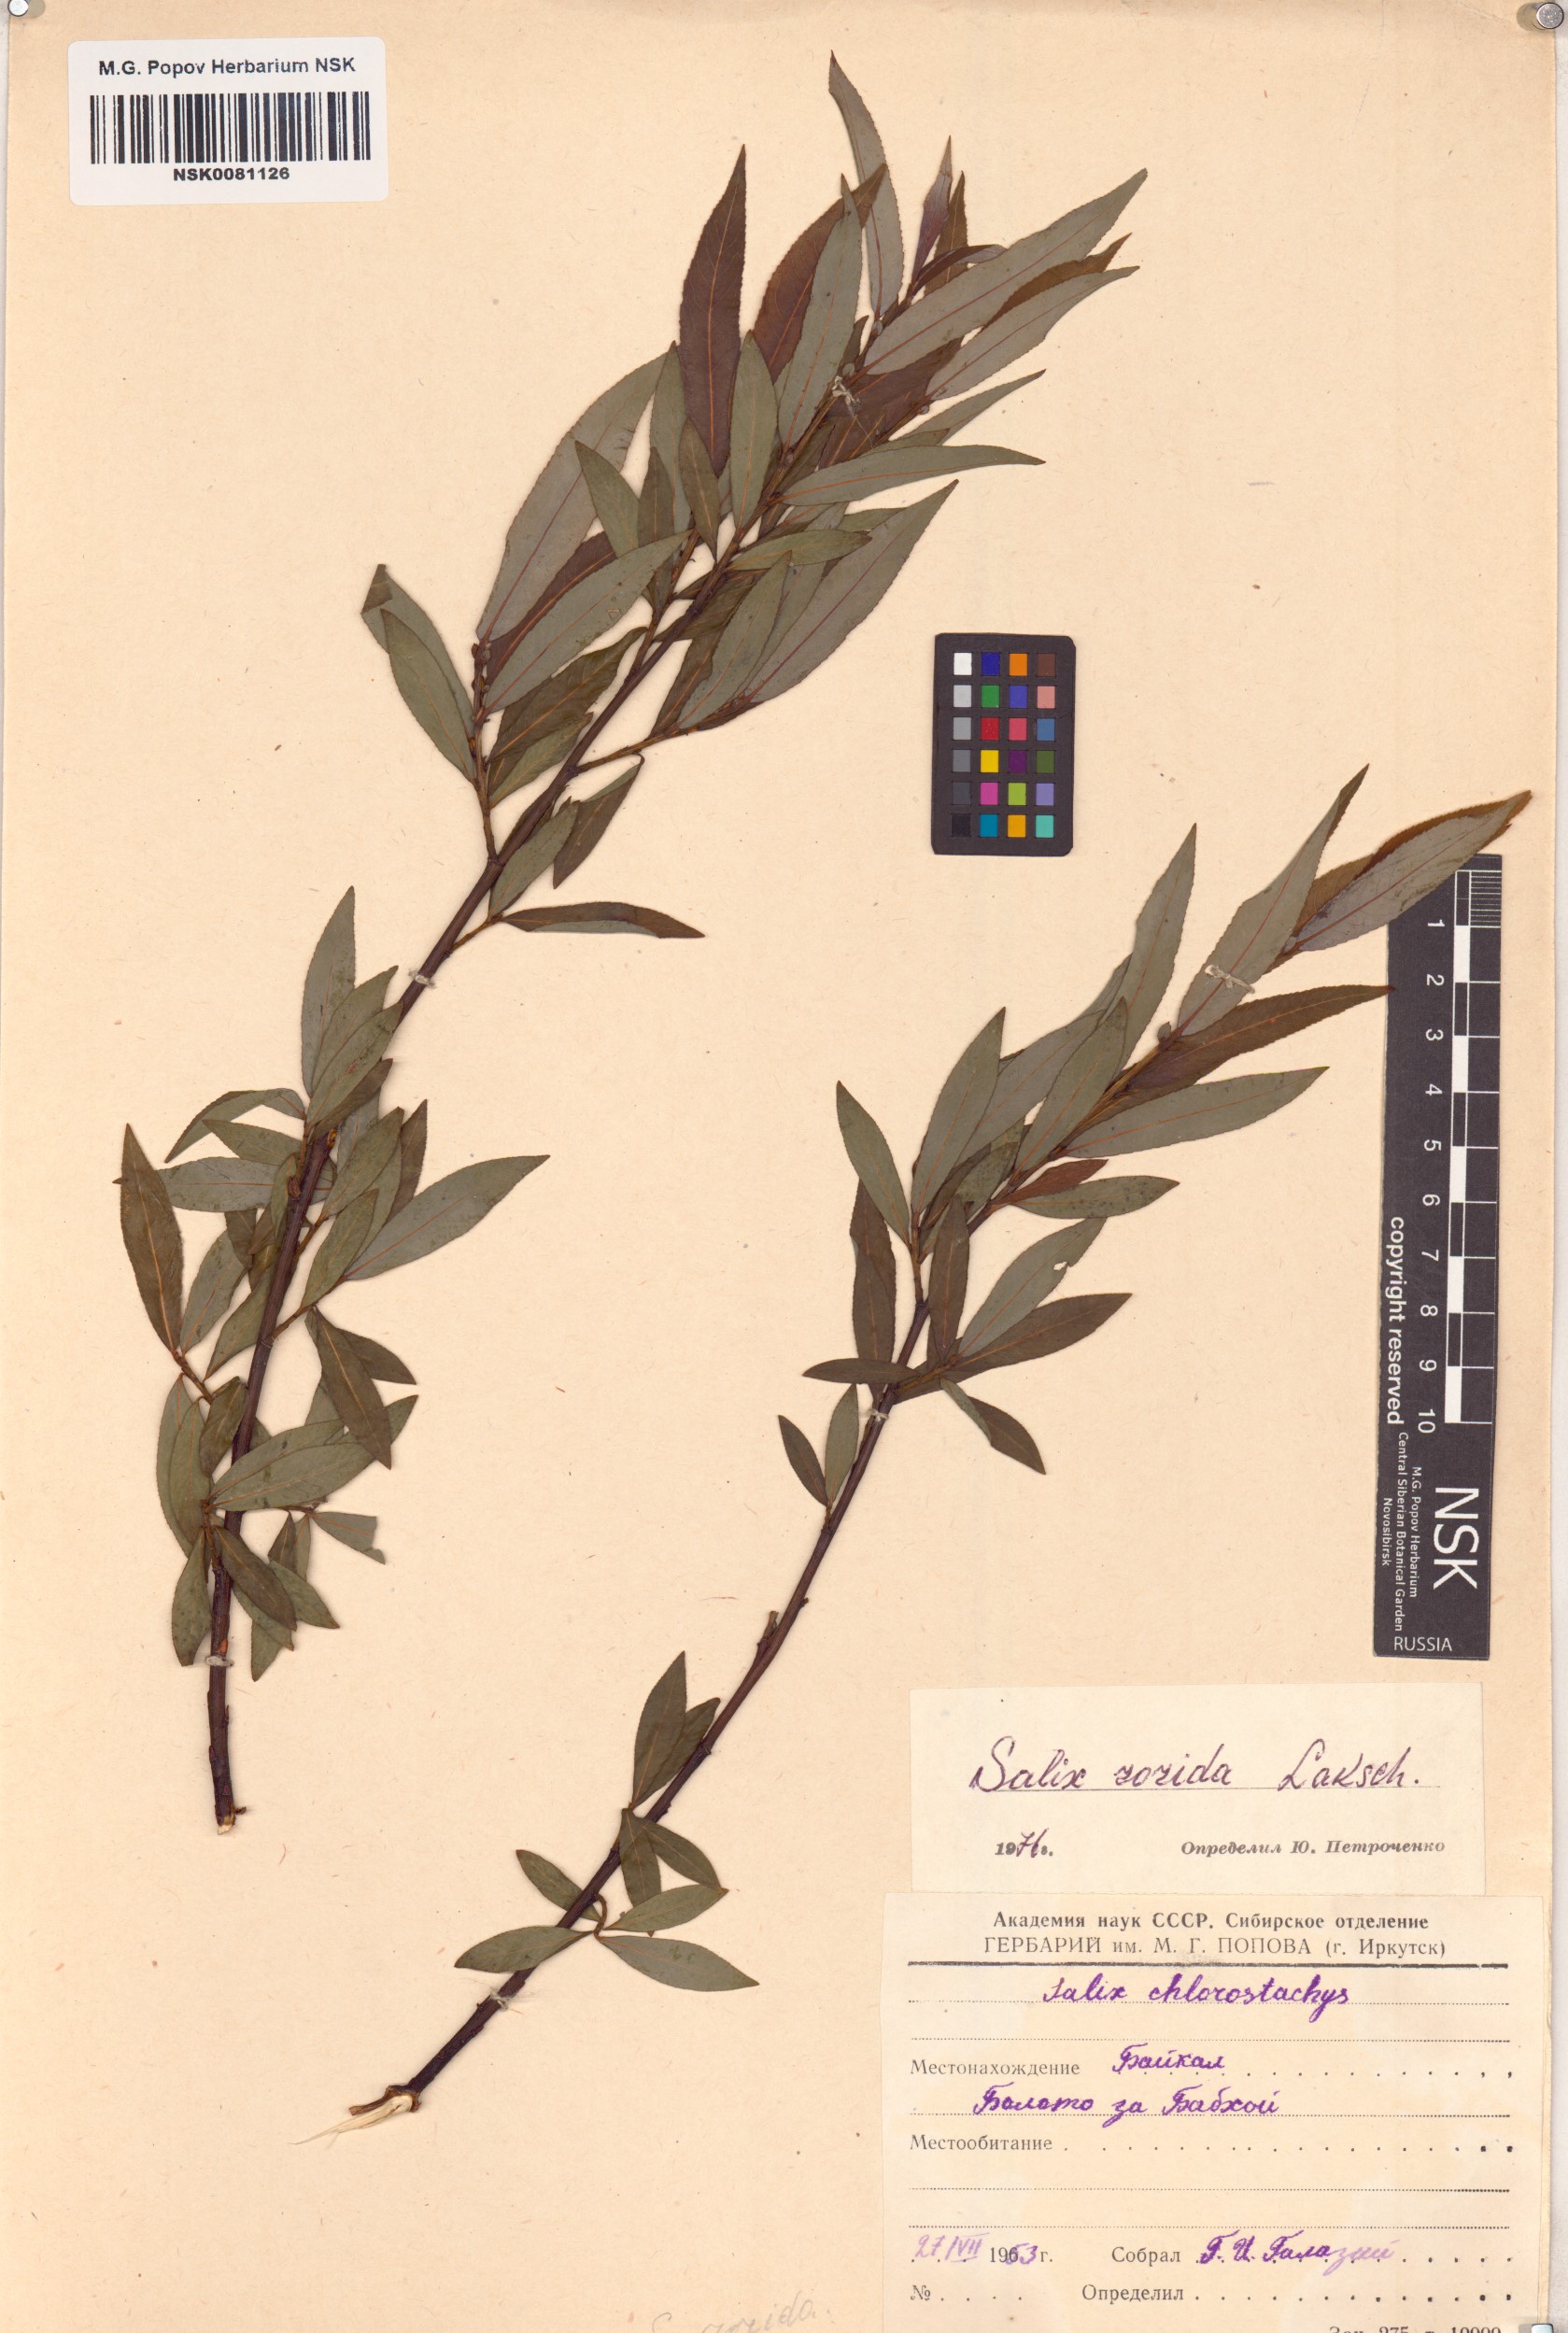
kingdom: Plantae
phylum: Tracheophyta
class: Magnoliopsida
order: Malpighiales
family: Salicaceae
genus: Salix
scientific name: Salix rorida
